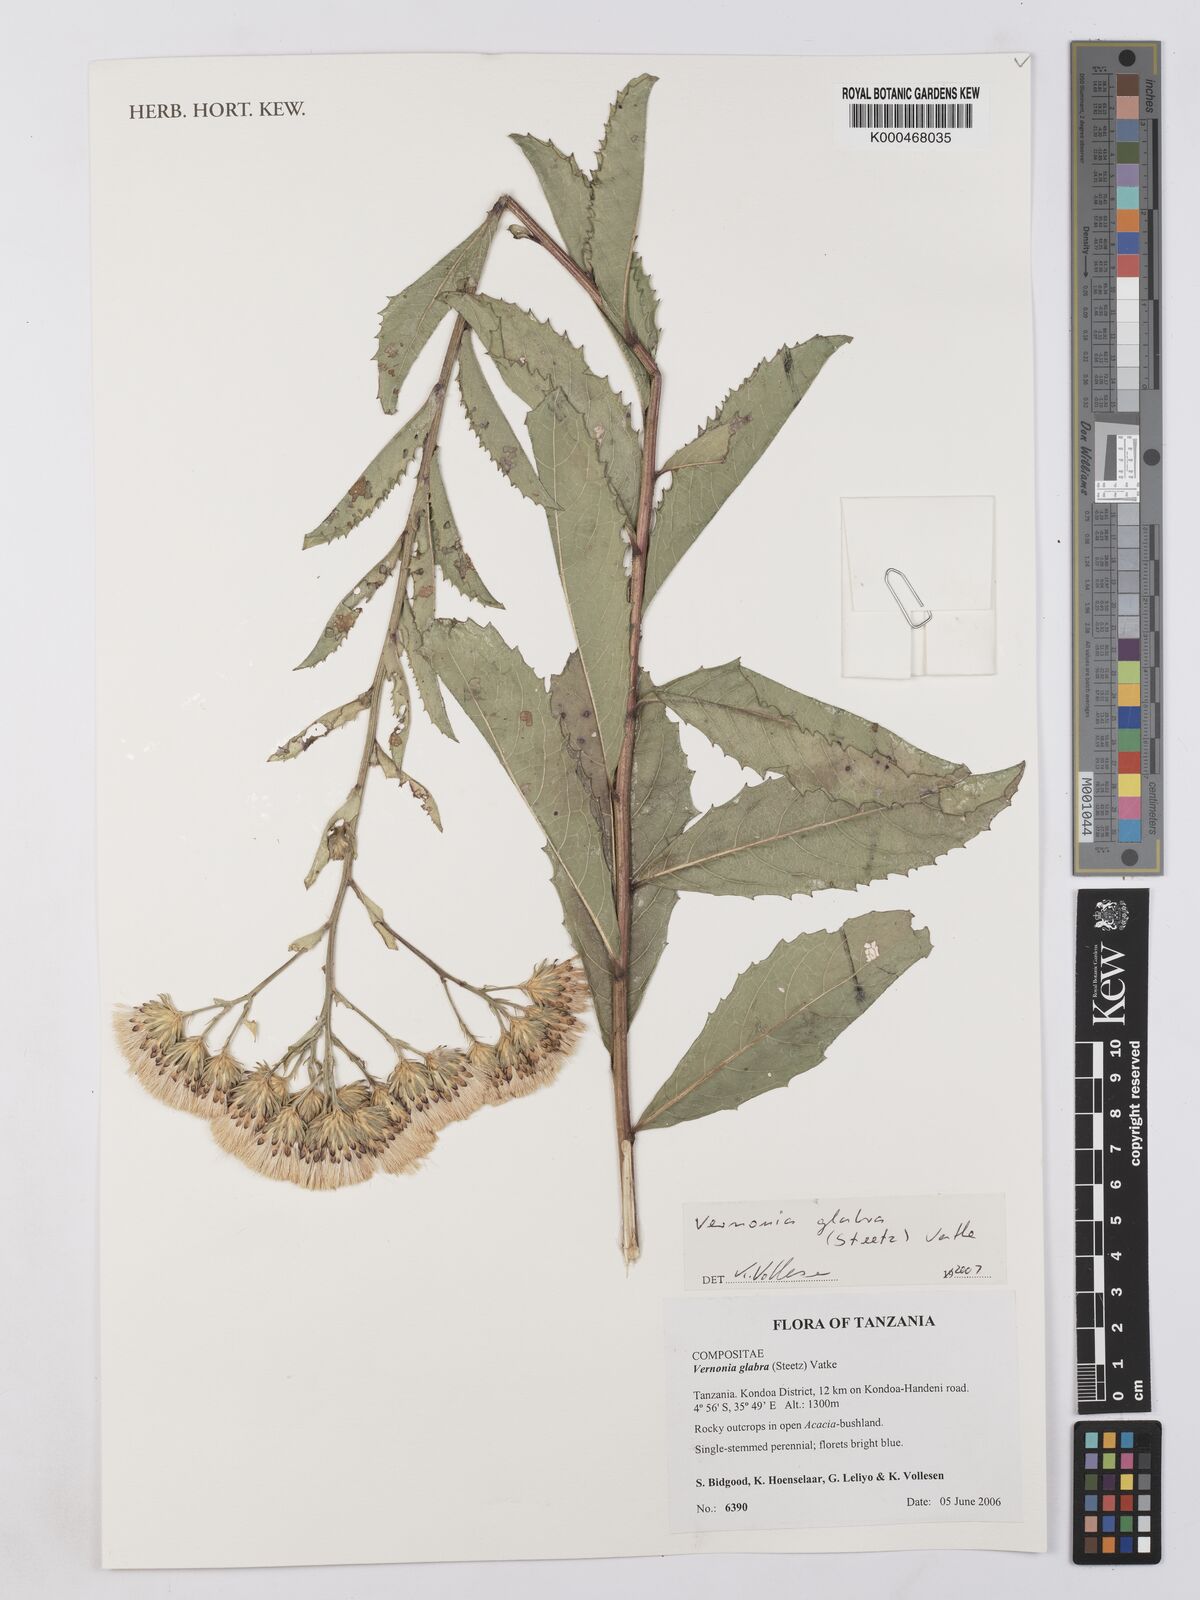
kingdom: Plantae
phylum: Tracheophyta
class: Magnoliopsida
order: Asterales
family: Asteraceae
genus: Linzia
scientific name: Linzia glabra
